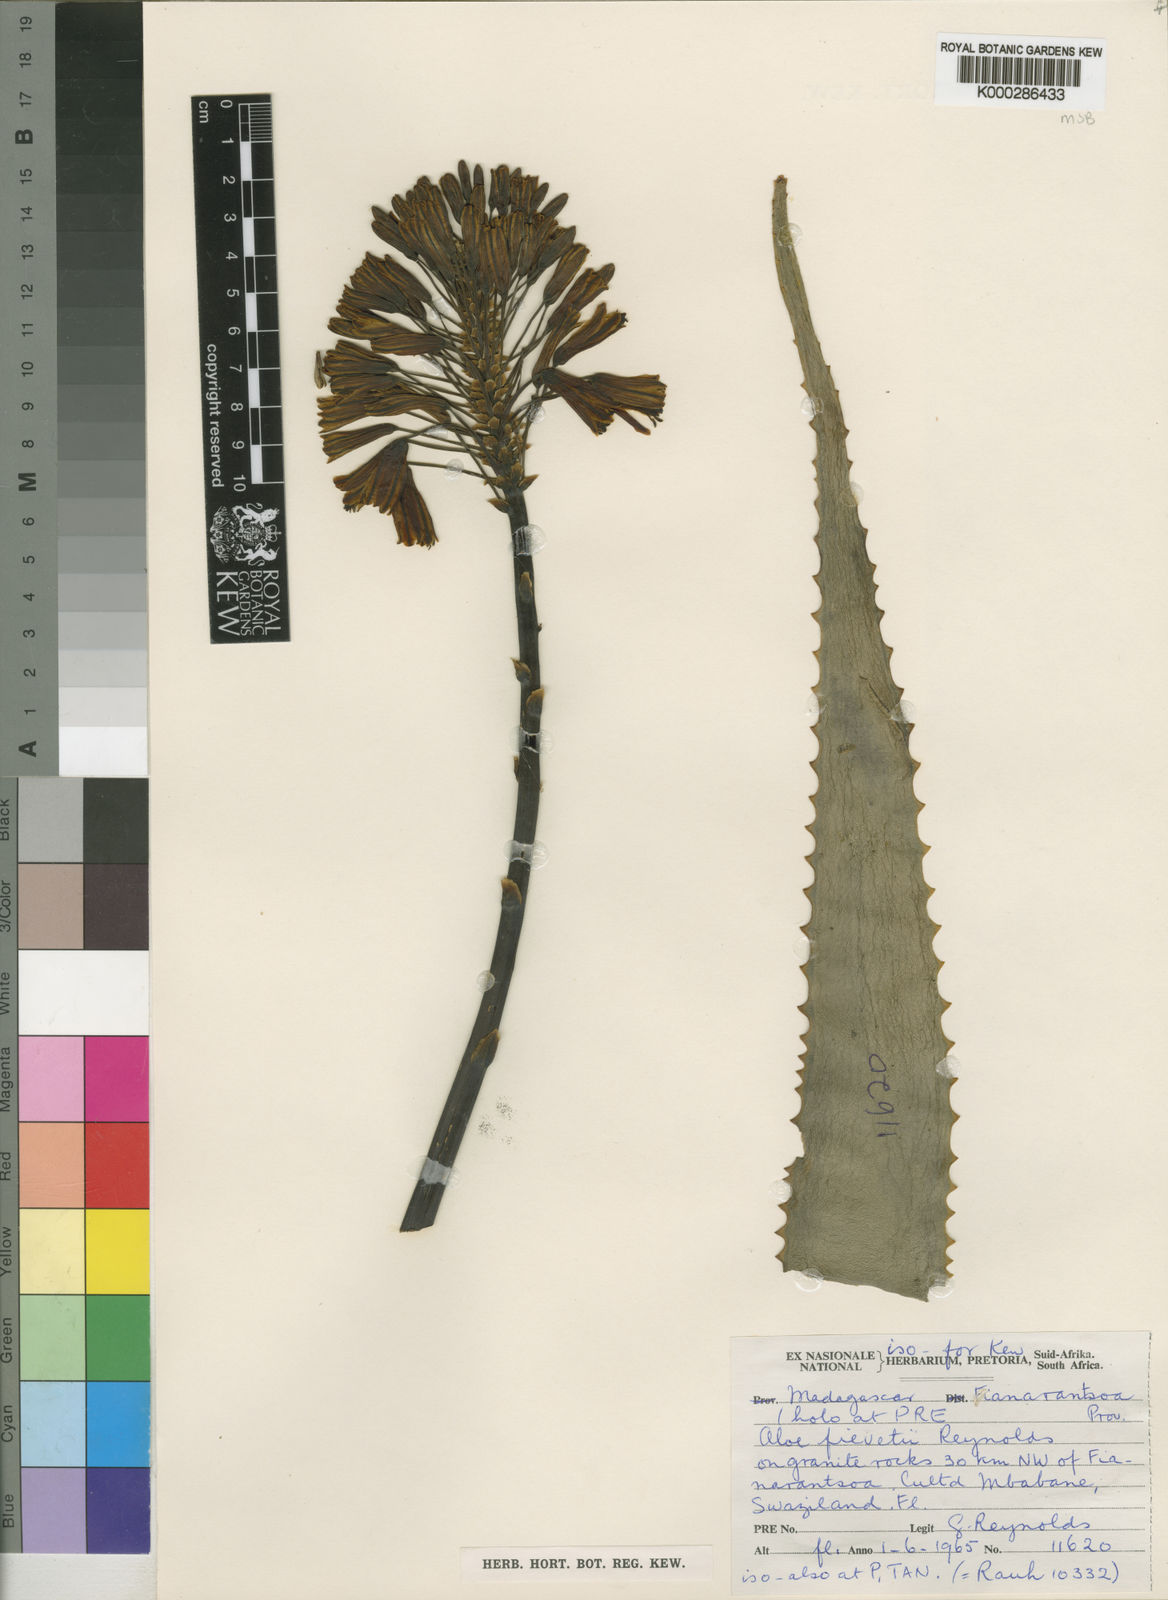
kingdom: Plantae
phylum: Tracheophyta
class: Liliopsida
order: Asparagales
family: Asphodelaceae
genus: Aloe
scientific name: Aloe fievetii
